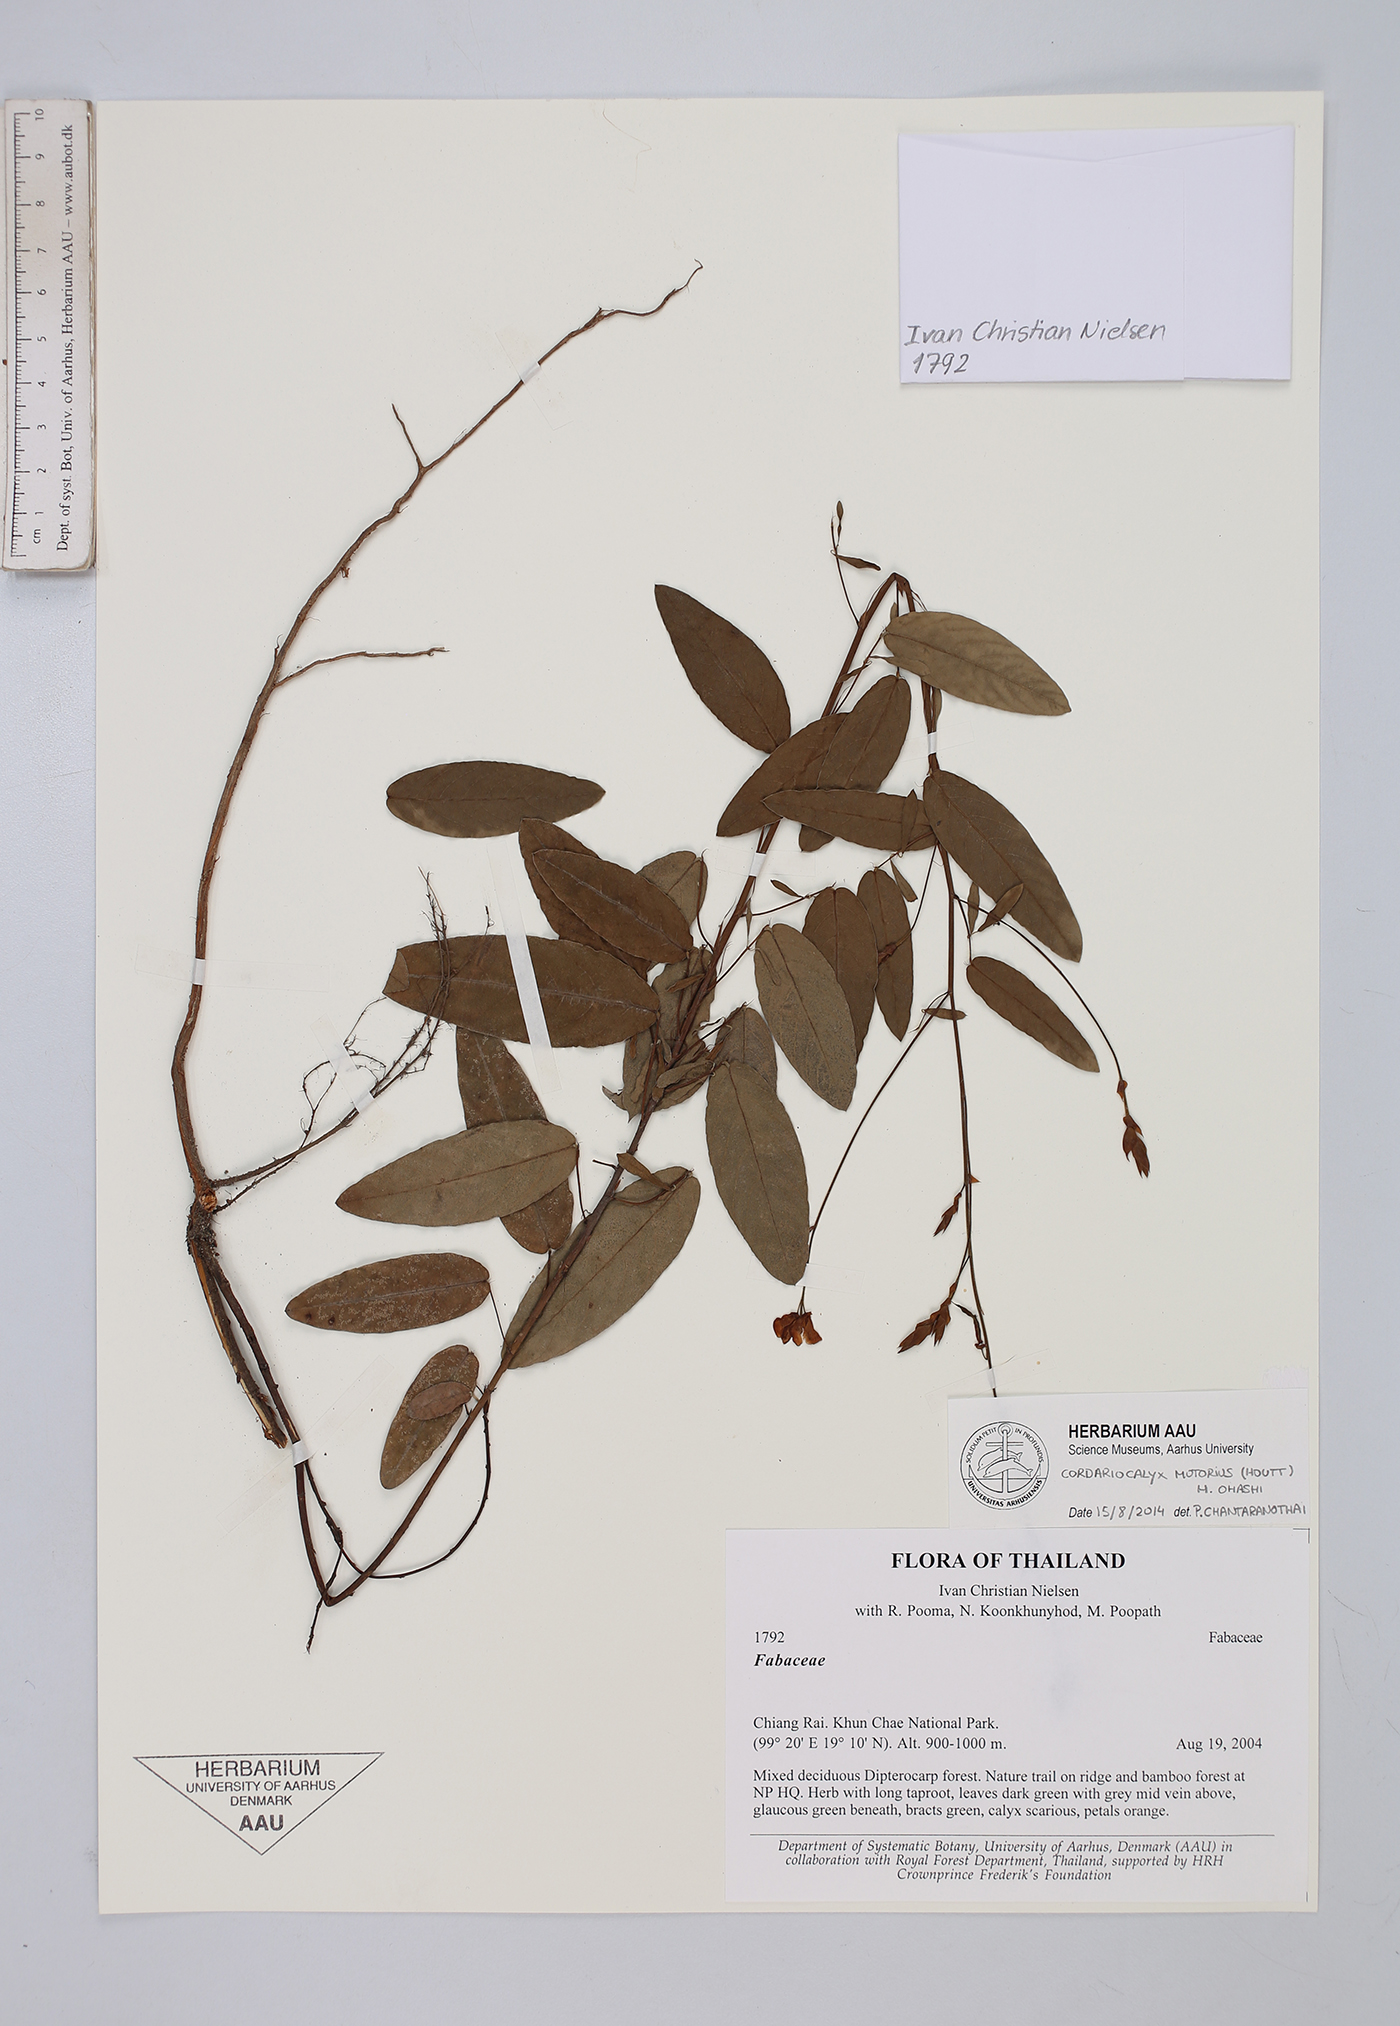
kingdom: Plantae
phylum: Tracheophyta
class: Magnoliopsida
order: Fabales
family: Fabaceae
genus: Codariocalyx
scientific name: Codariocalyx motorius
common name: Telegraph-plant
